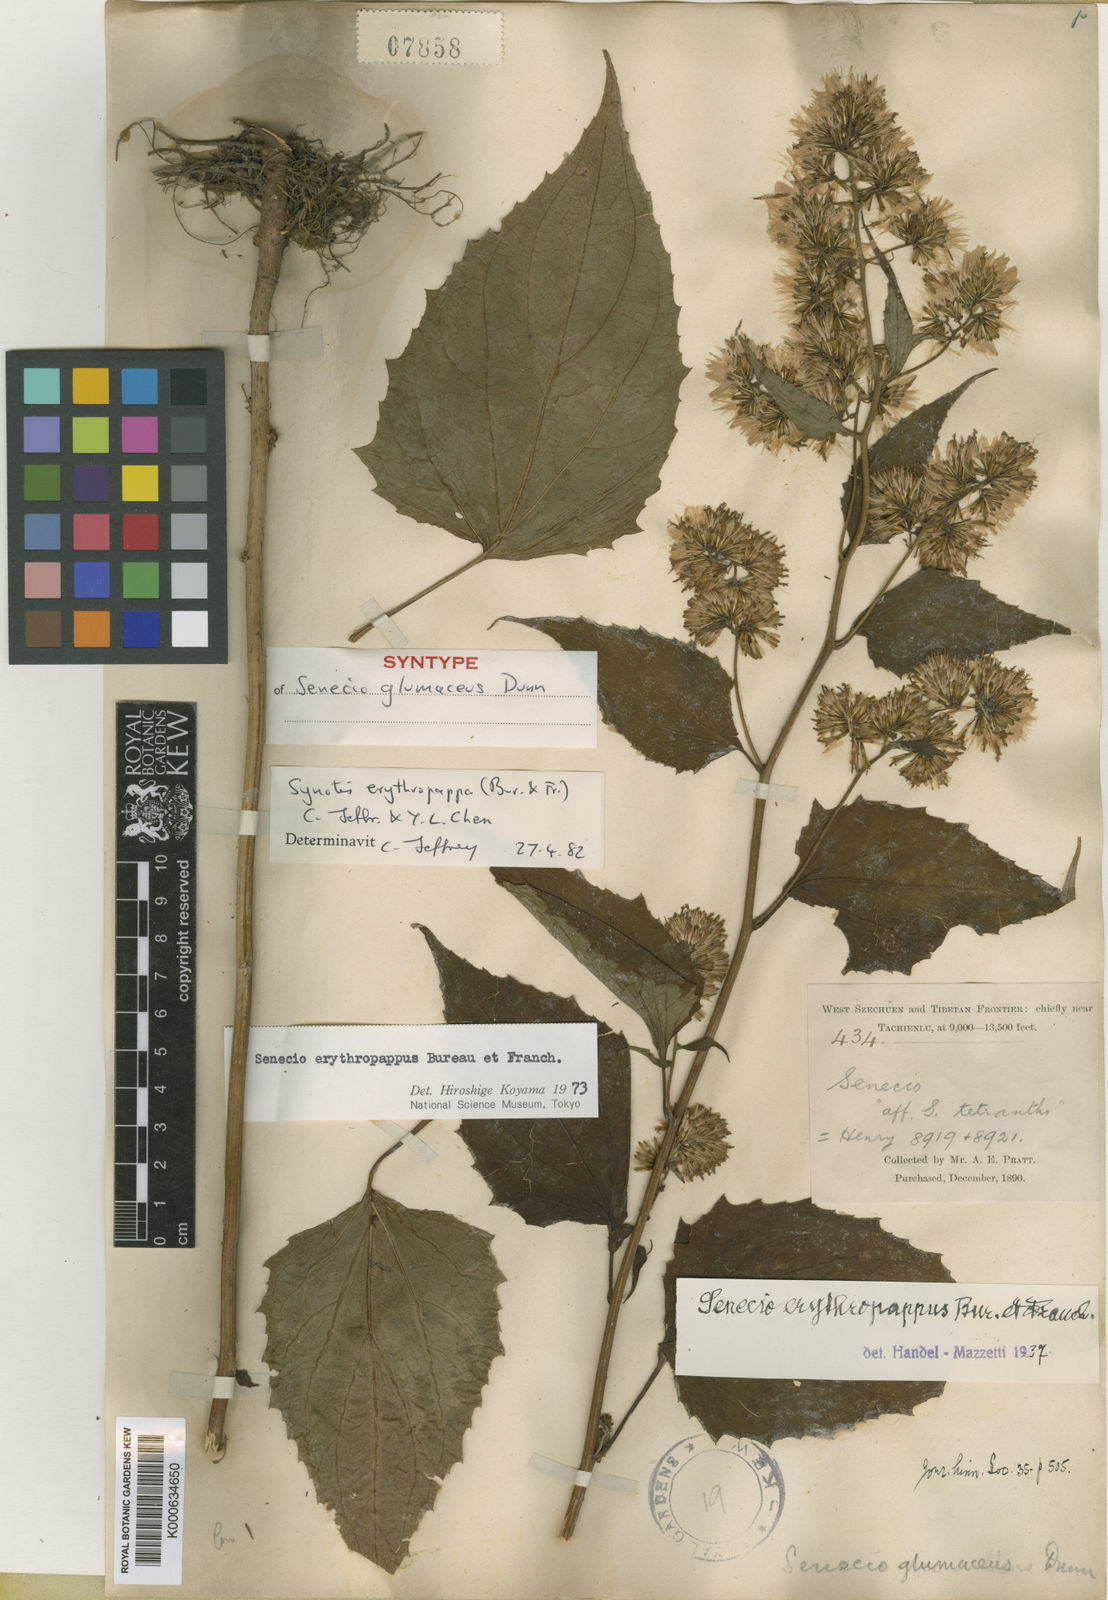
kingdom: Plantae
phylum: Tracheophyta
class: Magnoliopsida
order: Asterales
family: Asteraceae
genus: Synotis
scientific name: Synotis erythropappa
